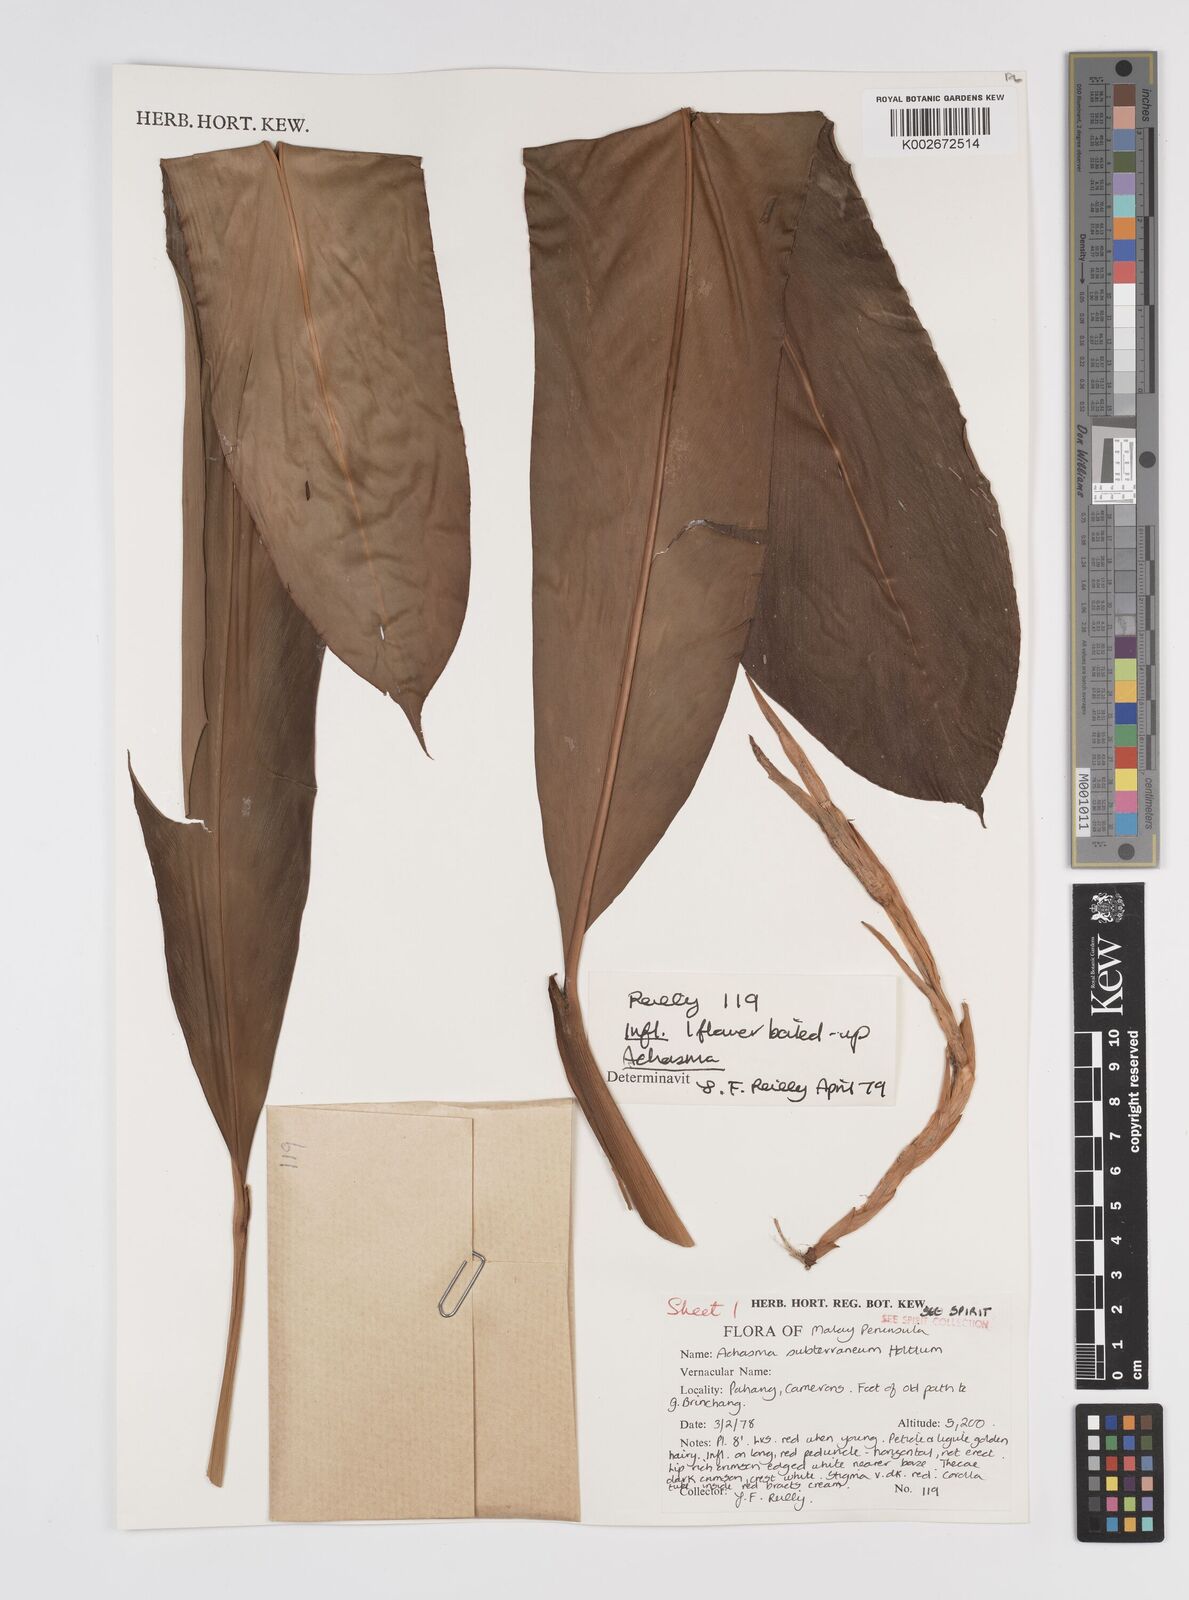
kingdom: Plantae
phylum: Tracheophyta
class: Liliopsida
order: Zingiberales
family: Zingiberaceae
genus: Etlingera
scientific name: Etlingera subterranea
